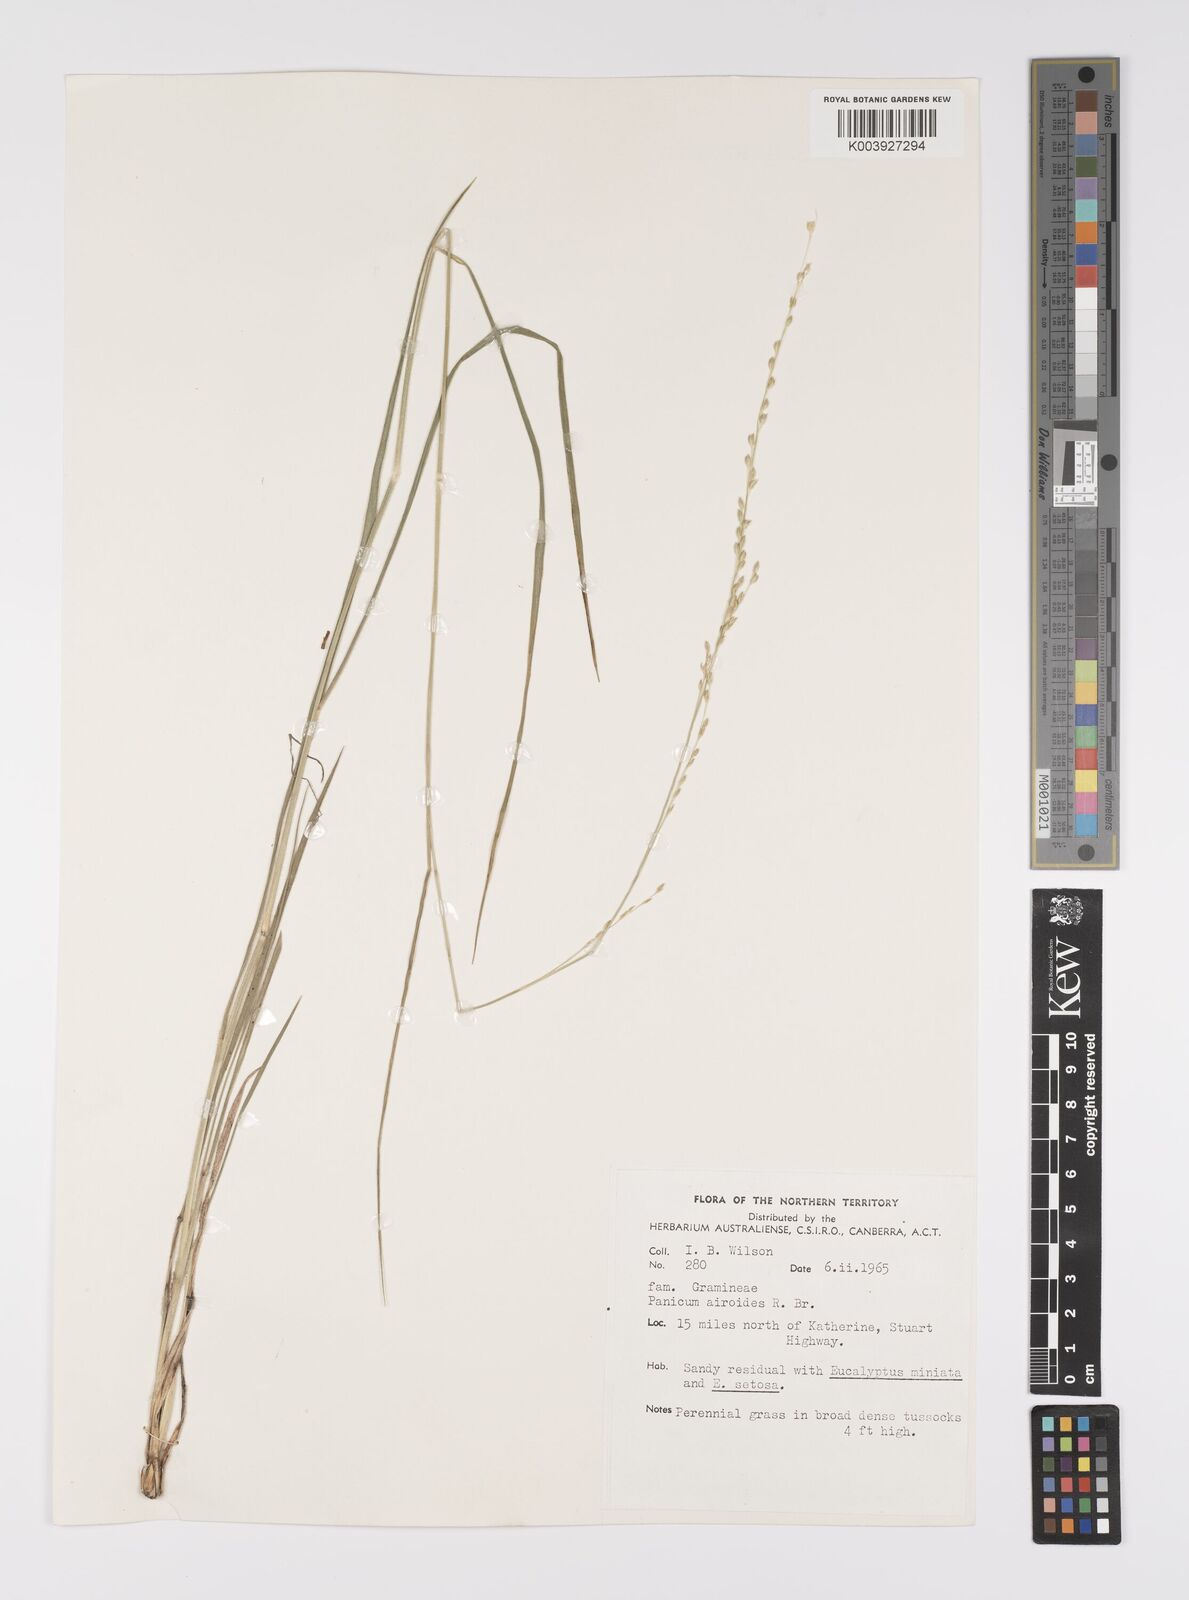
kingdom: Plantae
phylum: Tracheophyta
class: Liliopsida
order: Poales
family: Poaceae
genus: Whiteochloa
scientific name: Whiteochloa airoides
